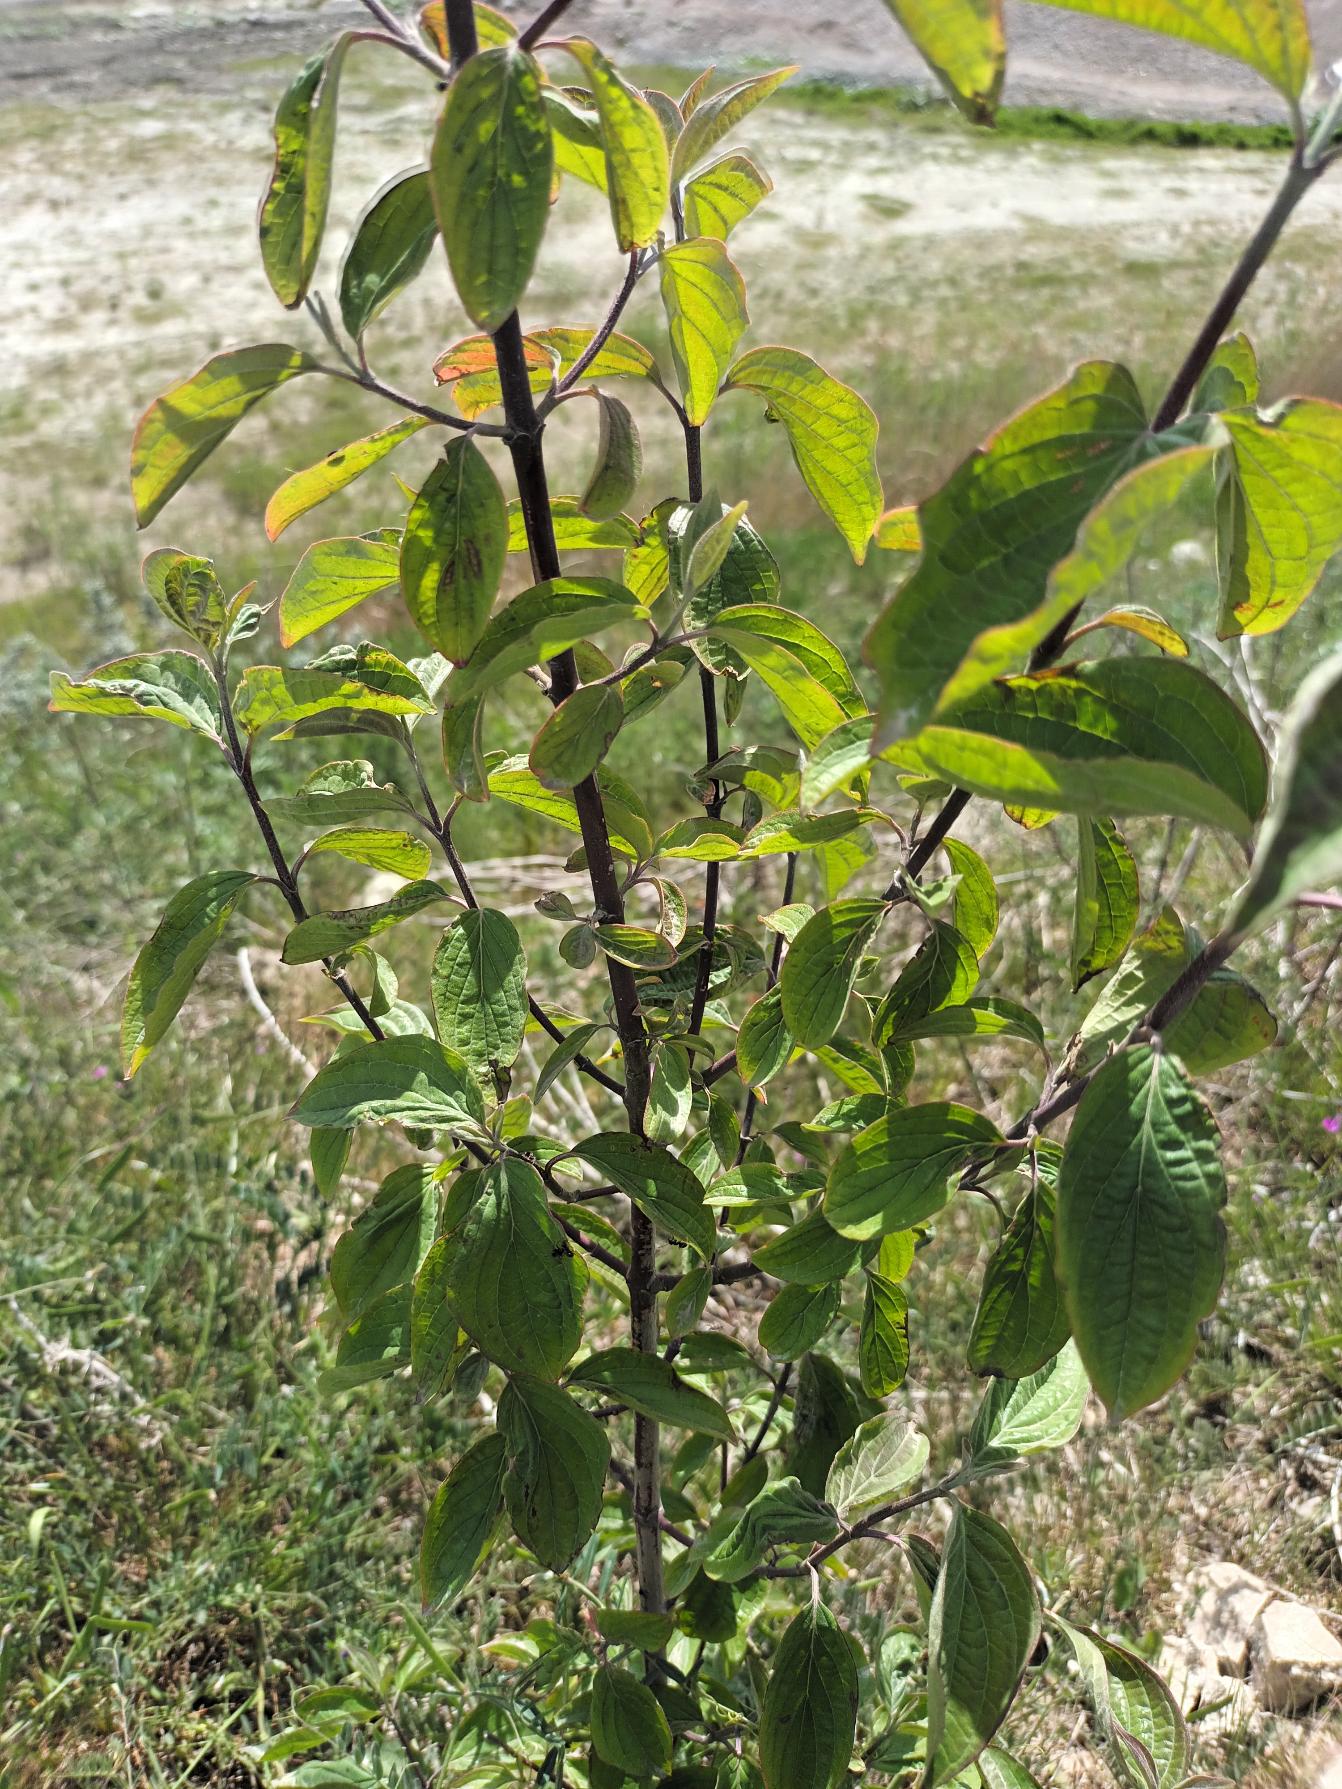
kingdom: Plantae
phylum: Tracheophyta
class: Magnoliopsida
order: Cornales
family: Cornaceae
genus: Cornus
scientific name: Cornus sanguinea
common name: Rød kornel
